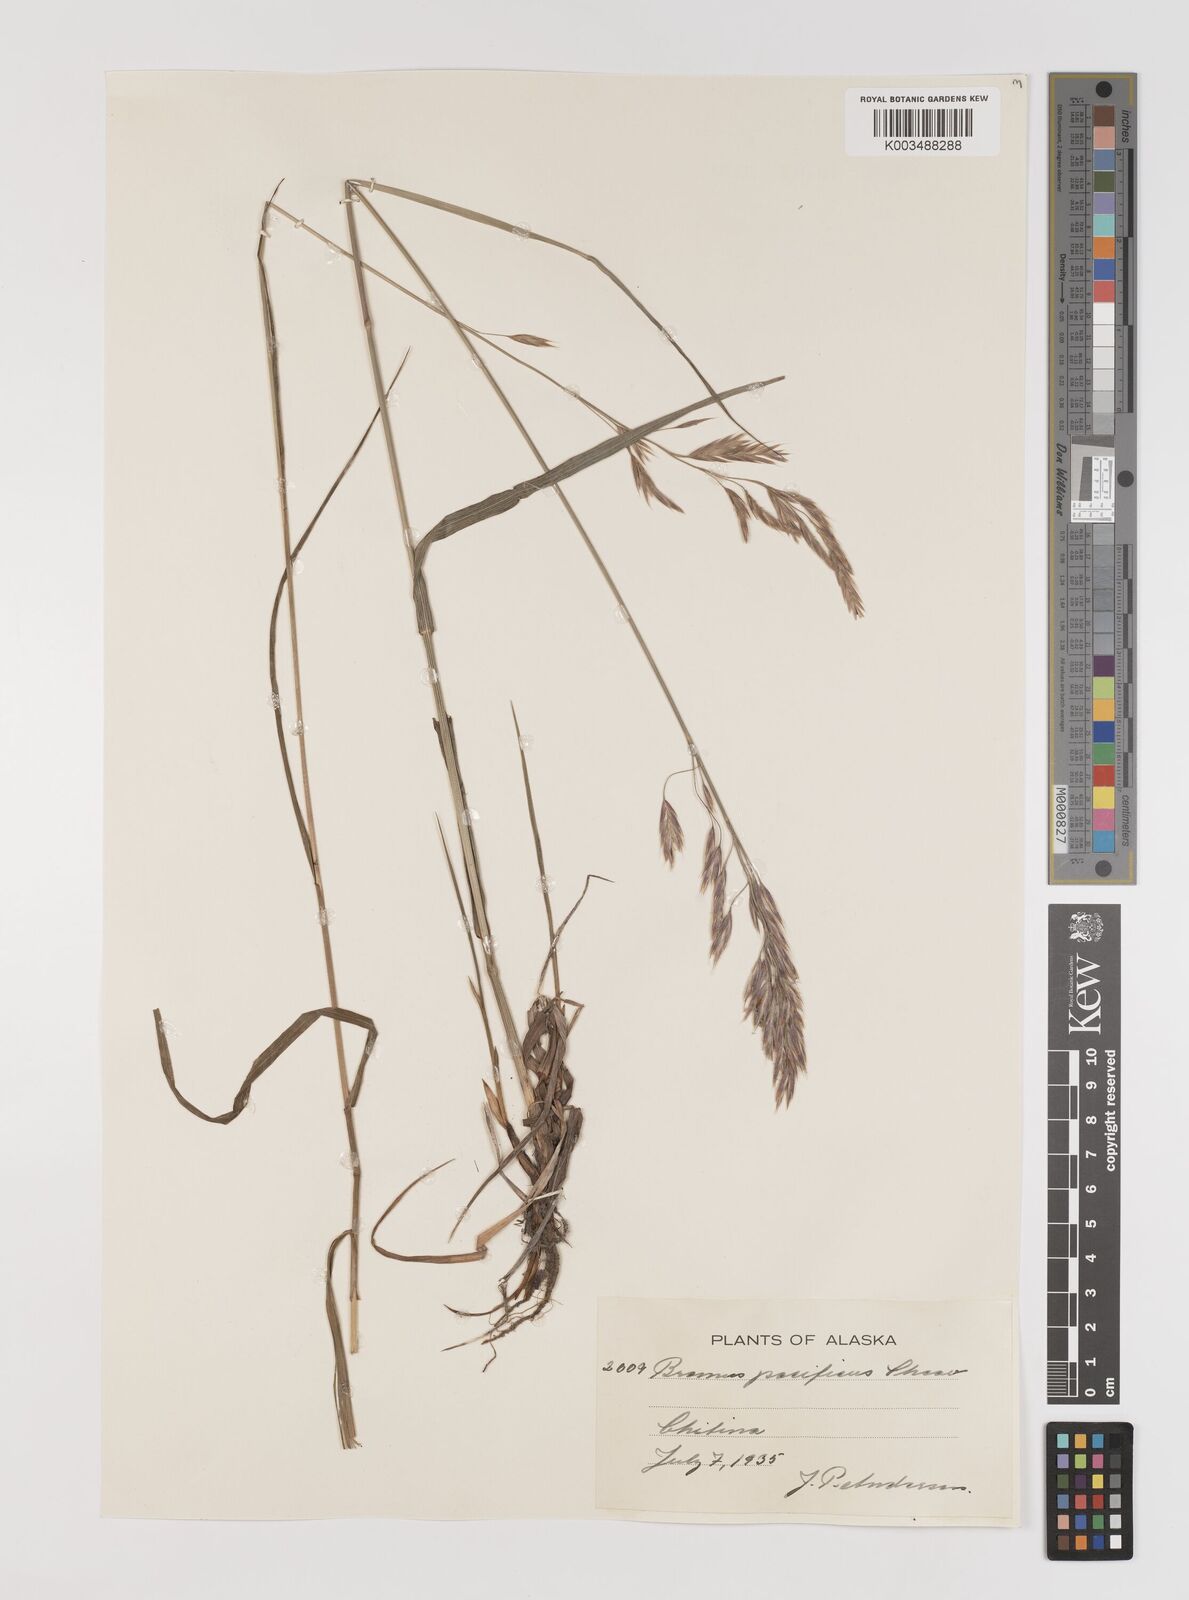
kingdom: Plantae
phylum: Tracheophyta
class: Liliopsida
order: Poales
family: Poaceae
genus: Bromus
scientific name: Bromus pacificus
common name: Pacific brome
